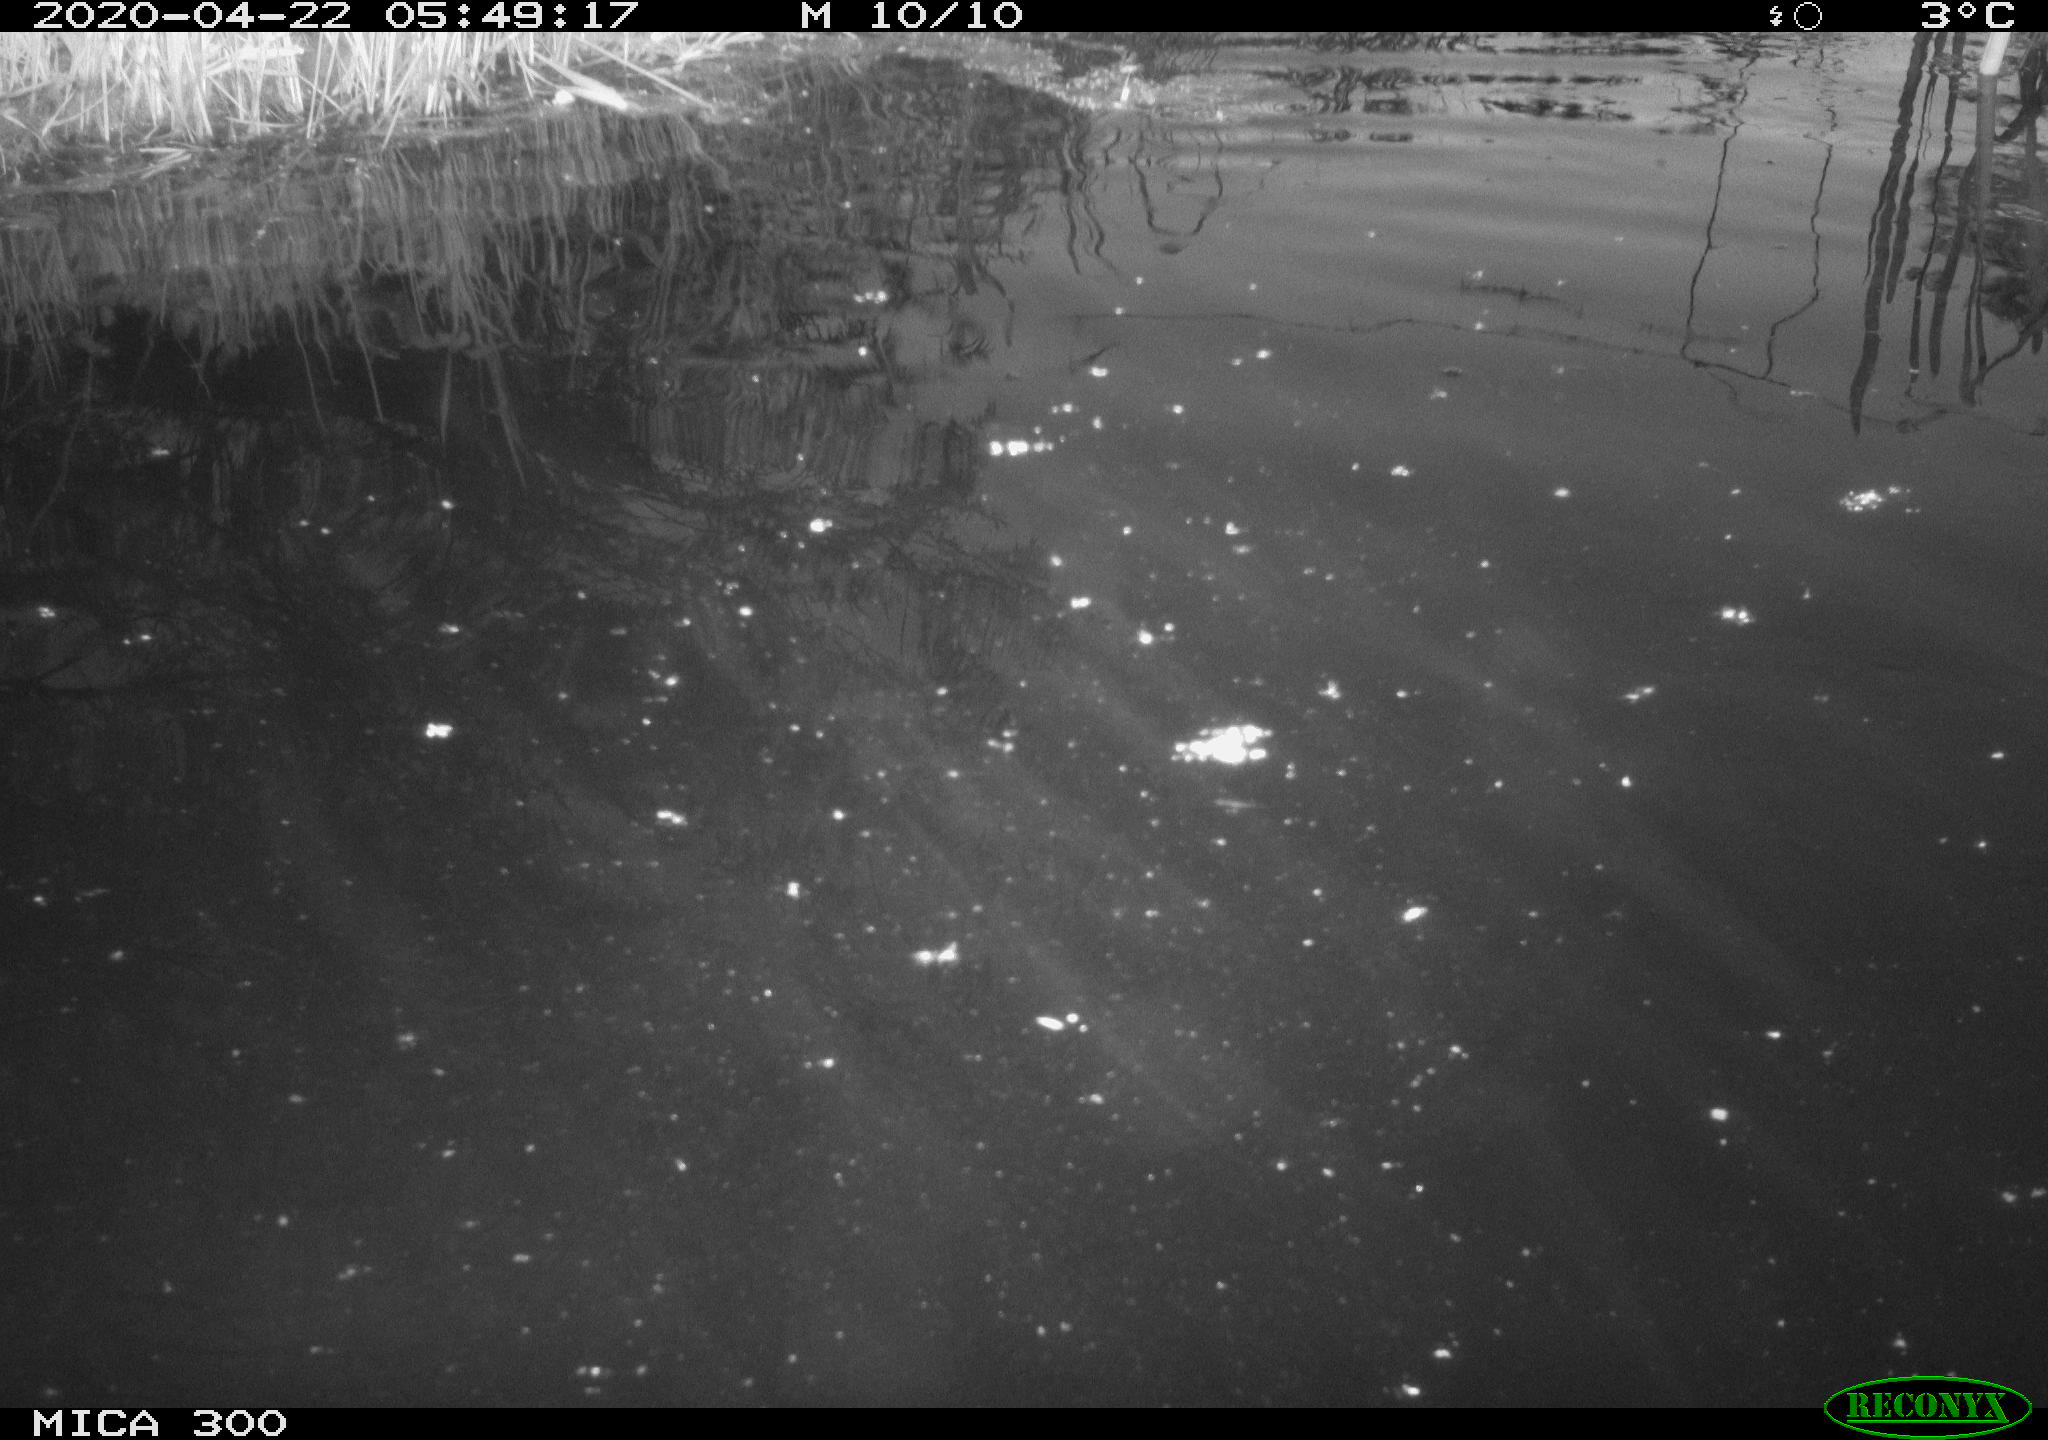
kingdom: Animalia
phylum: Chordata
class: Mammalia
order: Rodentia
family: Castoridae
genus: Castor
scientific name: Castor fiber
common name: Eurasian beaver
